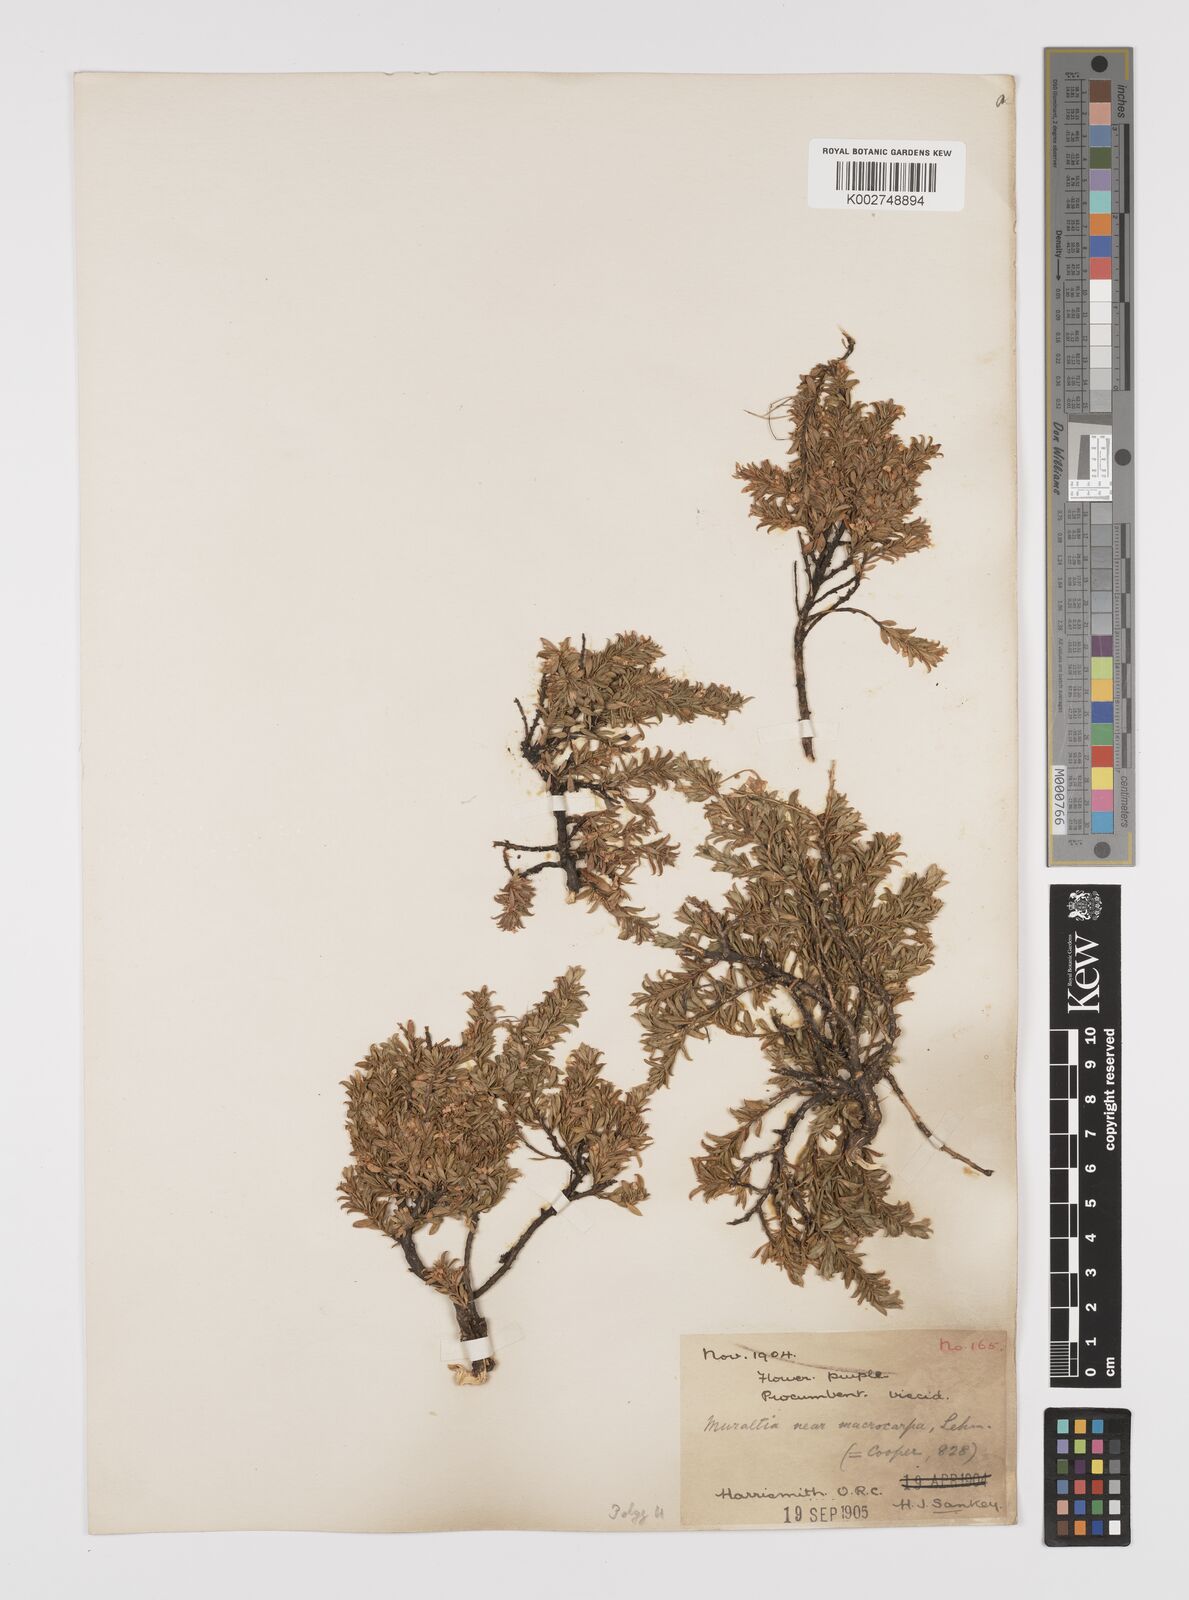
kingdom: Plantae
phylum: Tracheophyta
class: Magnoliopsida
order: Fabales
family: Polygalaceae
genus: Muraltia
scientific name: Muraltia saxicola
